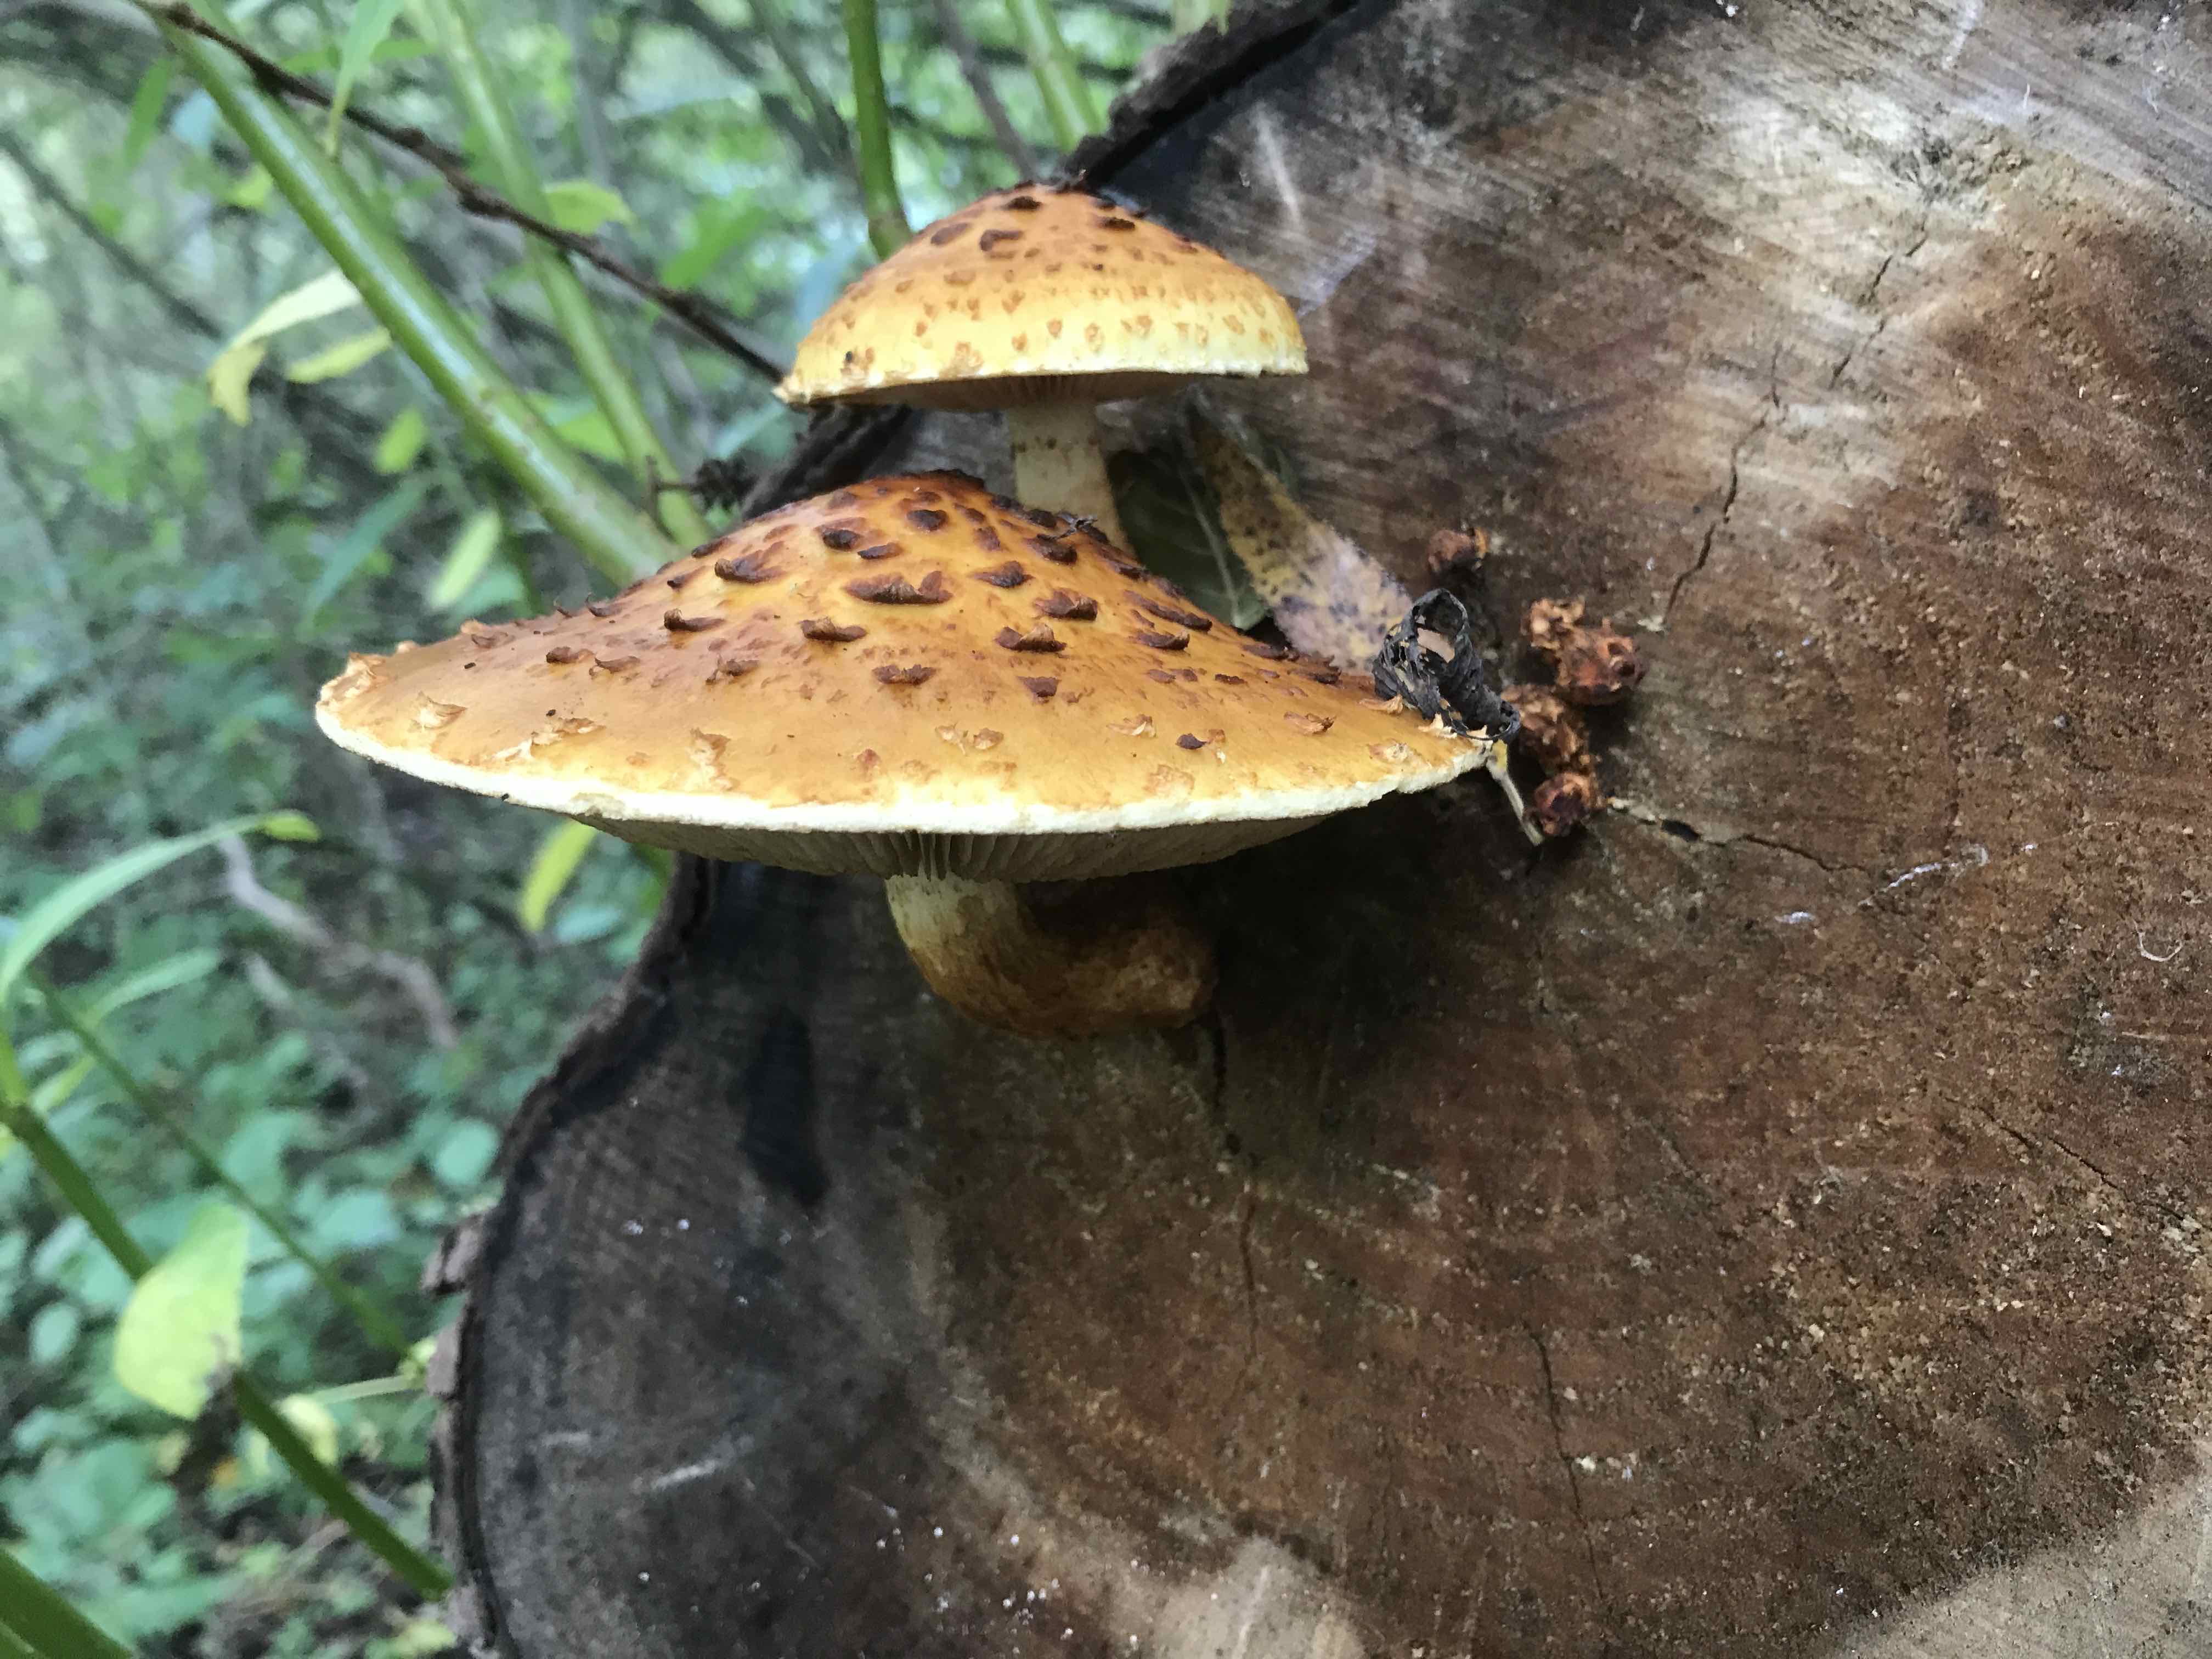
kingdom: Fungi
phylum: Basidiomycota
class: Agaricomycetes
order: Agaricales
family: Strophariaceae
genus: Pholiota
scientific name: Pholiota aurivella
